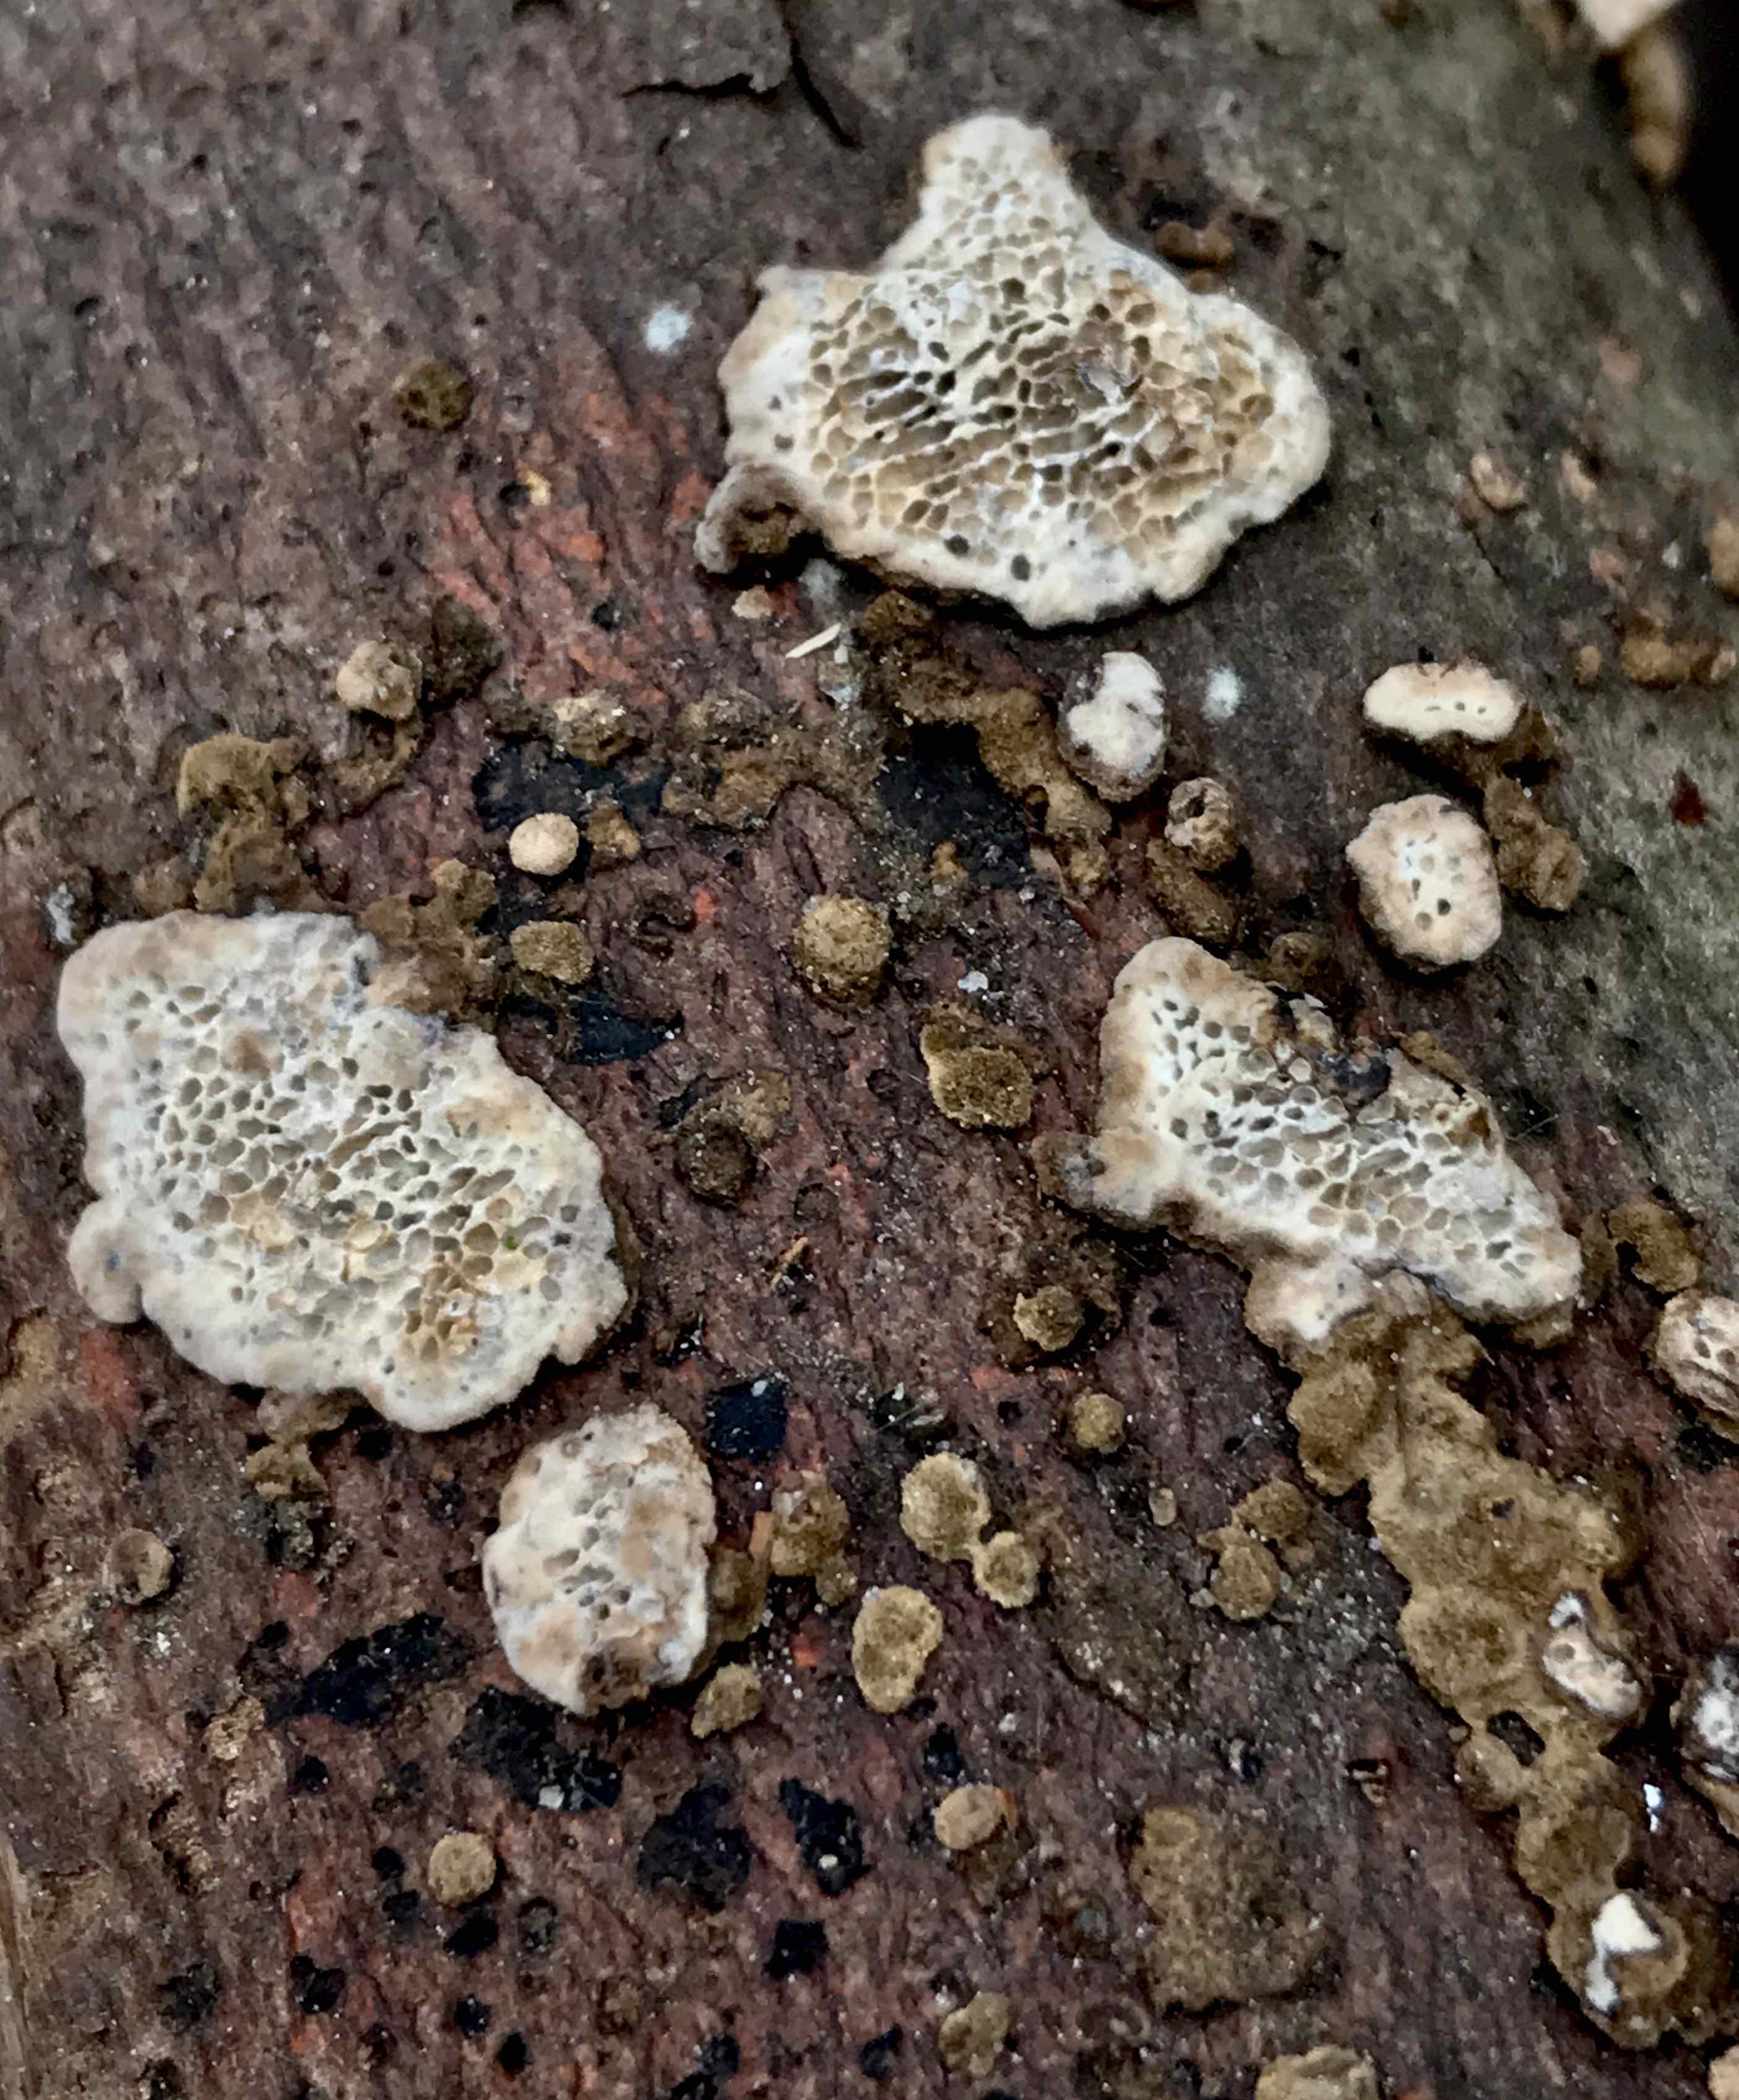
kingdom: Fungi
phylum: Basidiomycota
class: Agaricomycetes
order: Polyporales
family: Polyporaceae
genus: Podofomes
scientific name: Podofomes mollis
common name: blød begporesvamp
